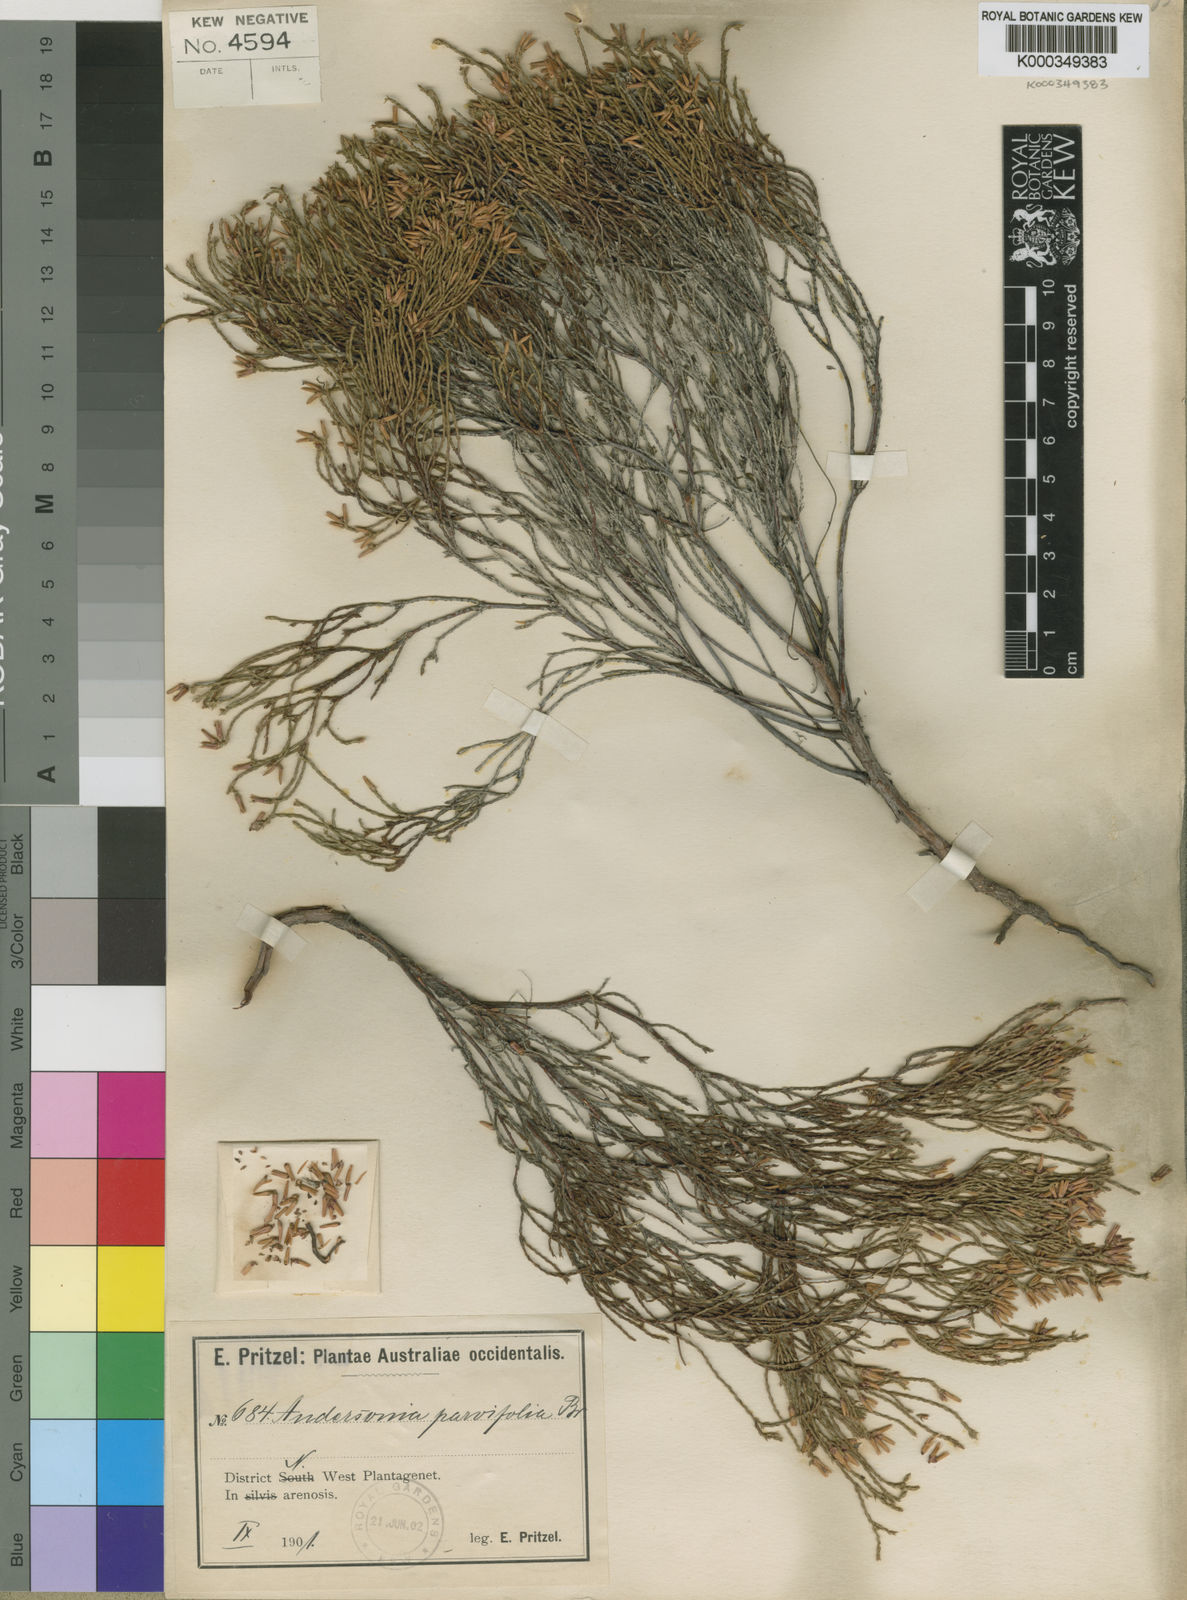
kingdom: Plantae
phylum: Tracheophyta
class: Magnoliopsida
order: Ericales
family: Ericaceae
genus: Andersonia
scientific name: Andersonia parvifolia
